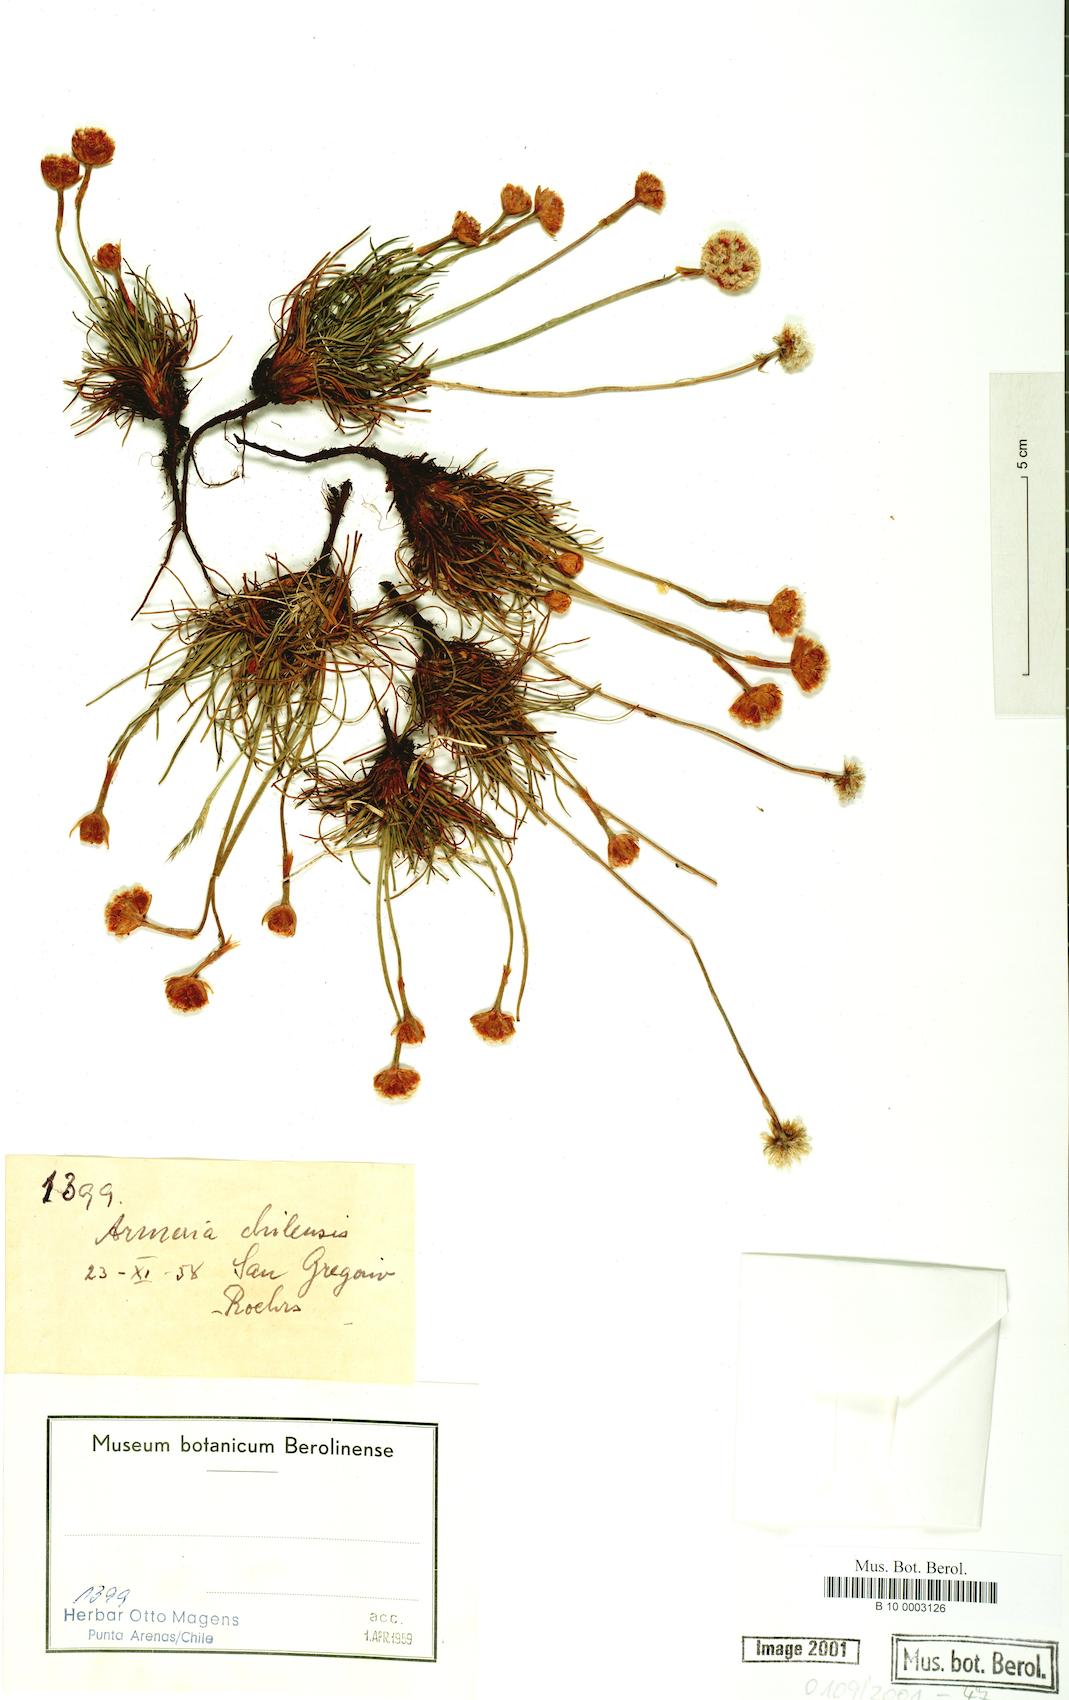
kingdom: Plantae
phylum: Tracheophyta
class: Magnoliopsida
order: Caryophyllales
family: Plumbaginaceae
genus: Armeria
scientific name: Armeria curvifolia
